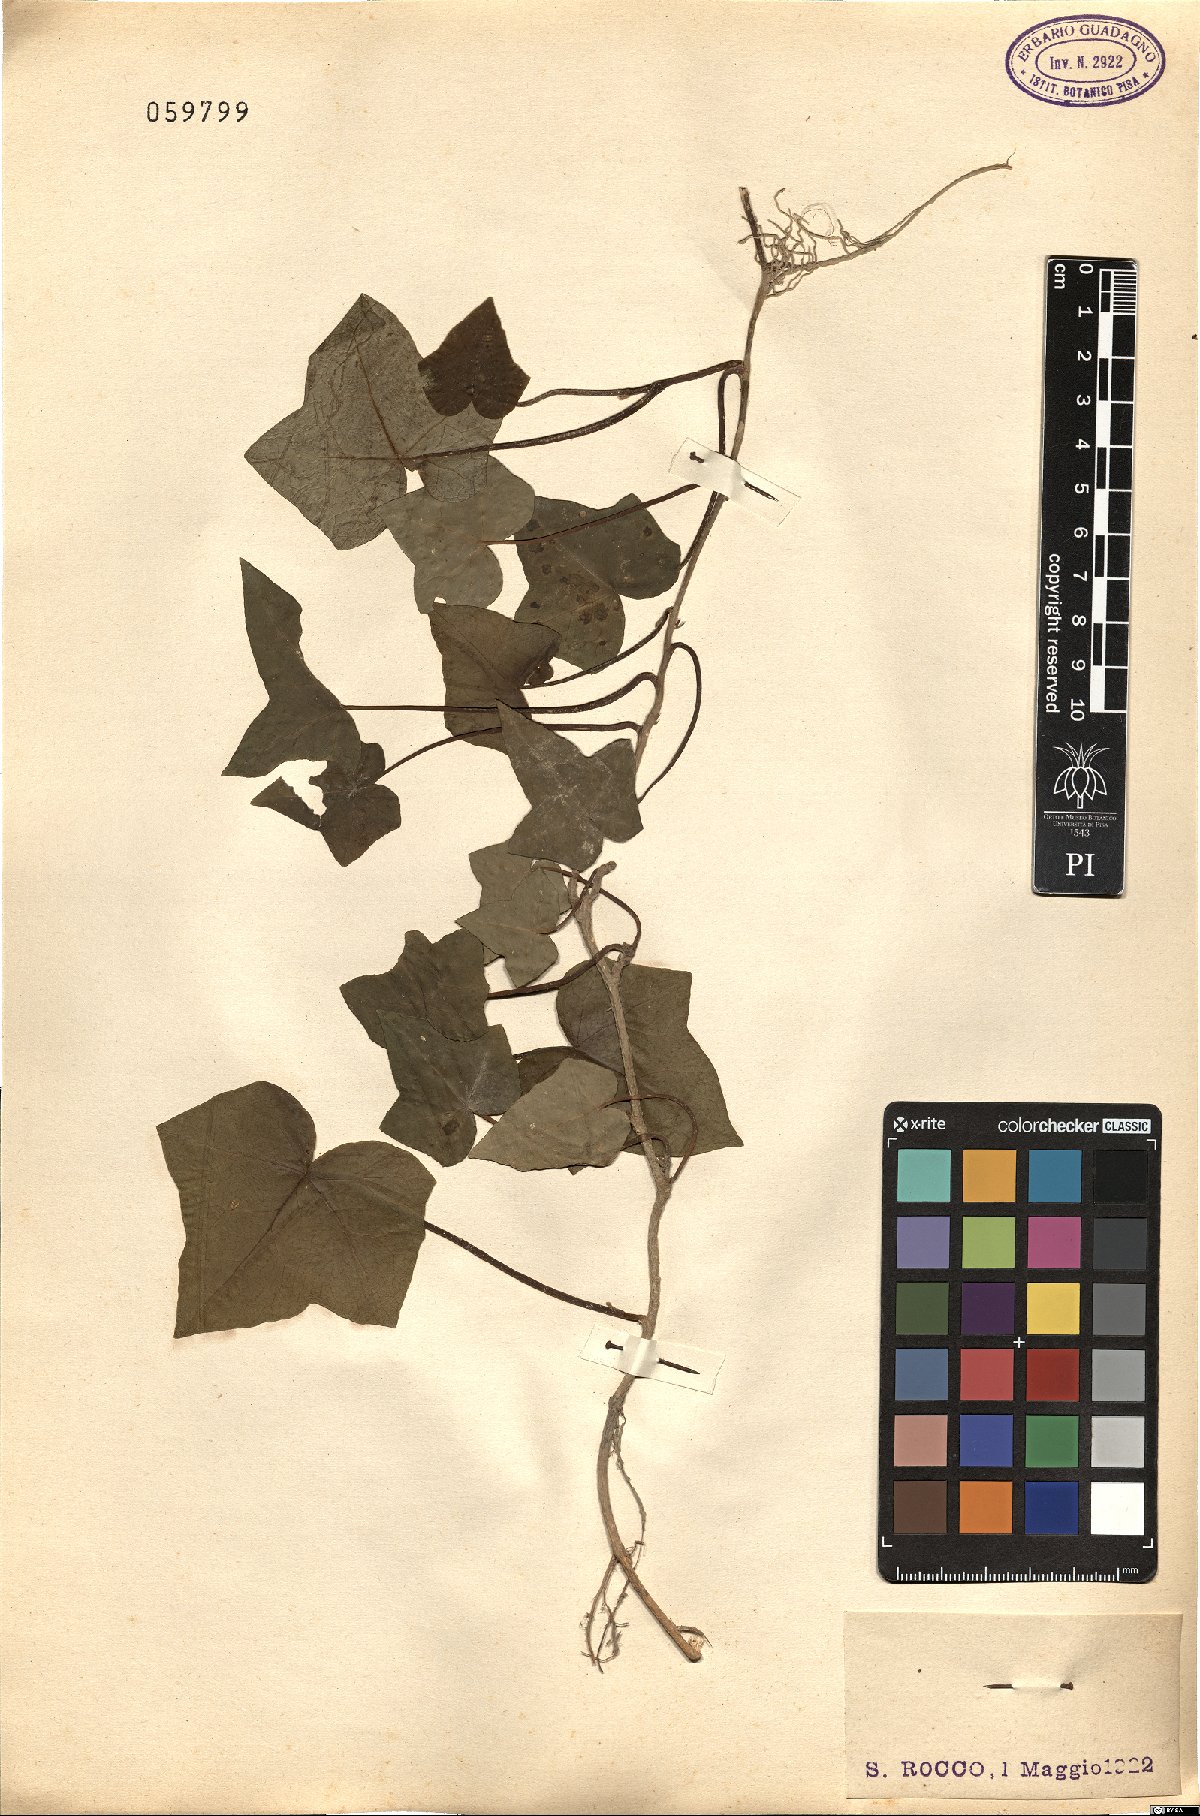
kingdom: Plantae
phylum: Tracheophyta
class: Magnoliopsida
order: Apiales
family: Araliaceae
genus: Hedera
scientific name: Hedera helix
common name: Ivy
